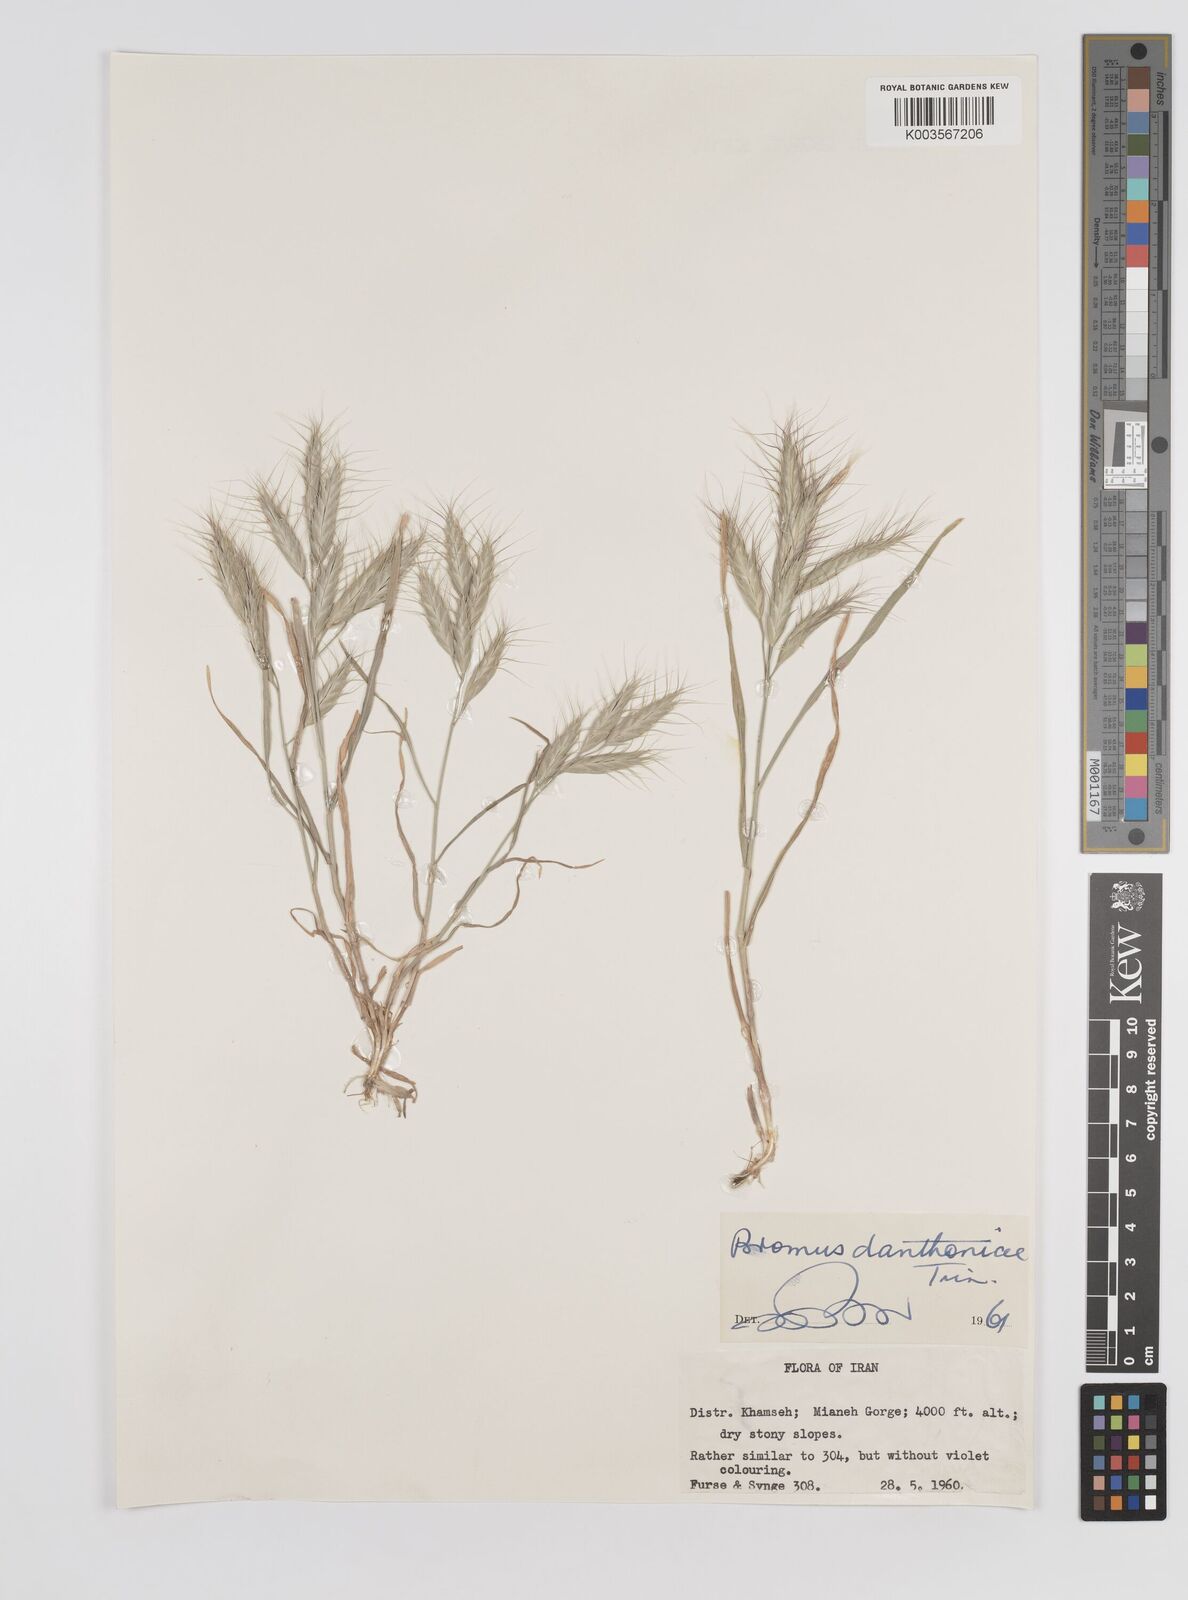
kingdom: Plantae
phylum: Tracheophyta
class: Liliopsida
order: Poales
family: Poaceae
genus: Bromus
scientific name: Bromus danthoniae
